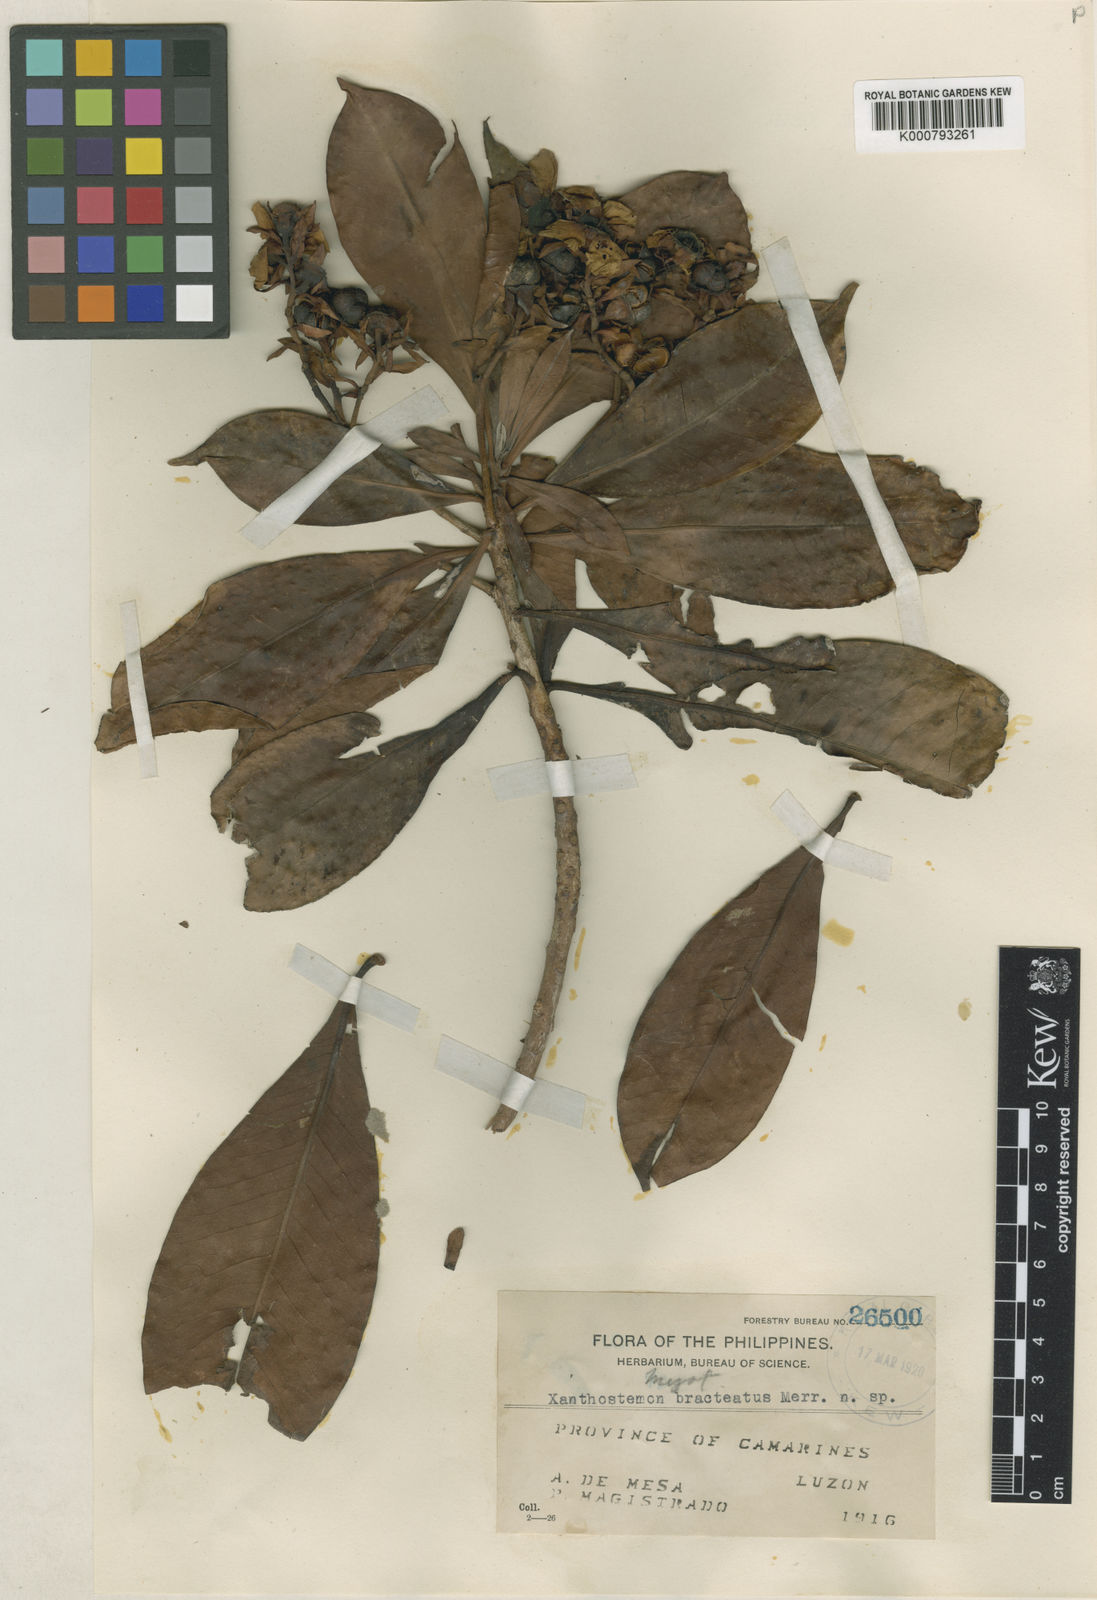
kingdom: Plantae
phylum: Tracheophyta
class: Magnoliopsida
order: Myrtales
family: Myrtaceae
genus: Xanthostemon
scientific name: Xanthostemon bracteatus
